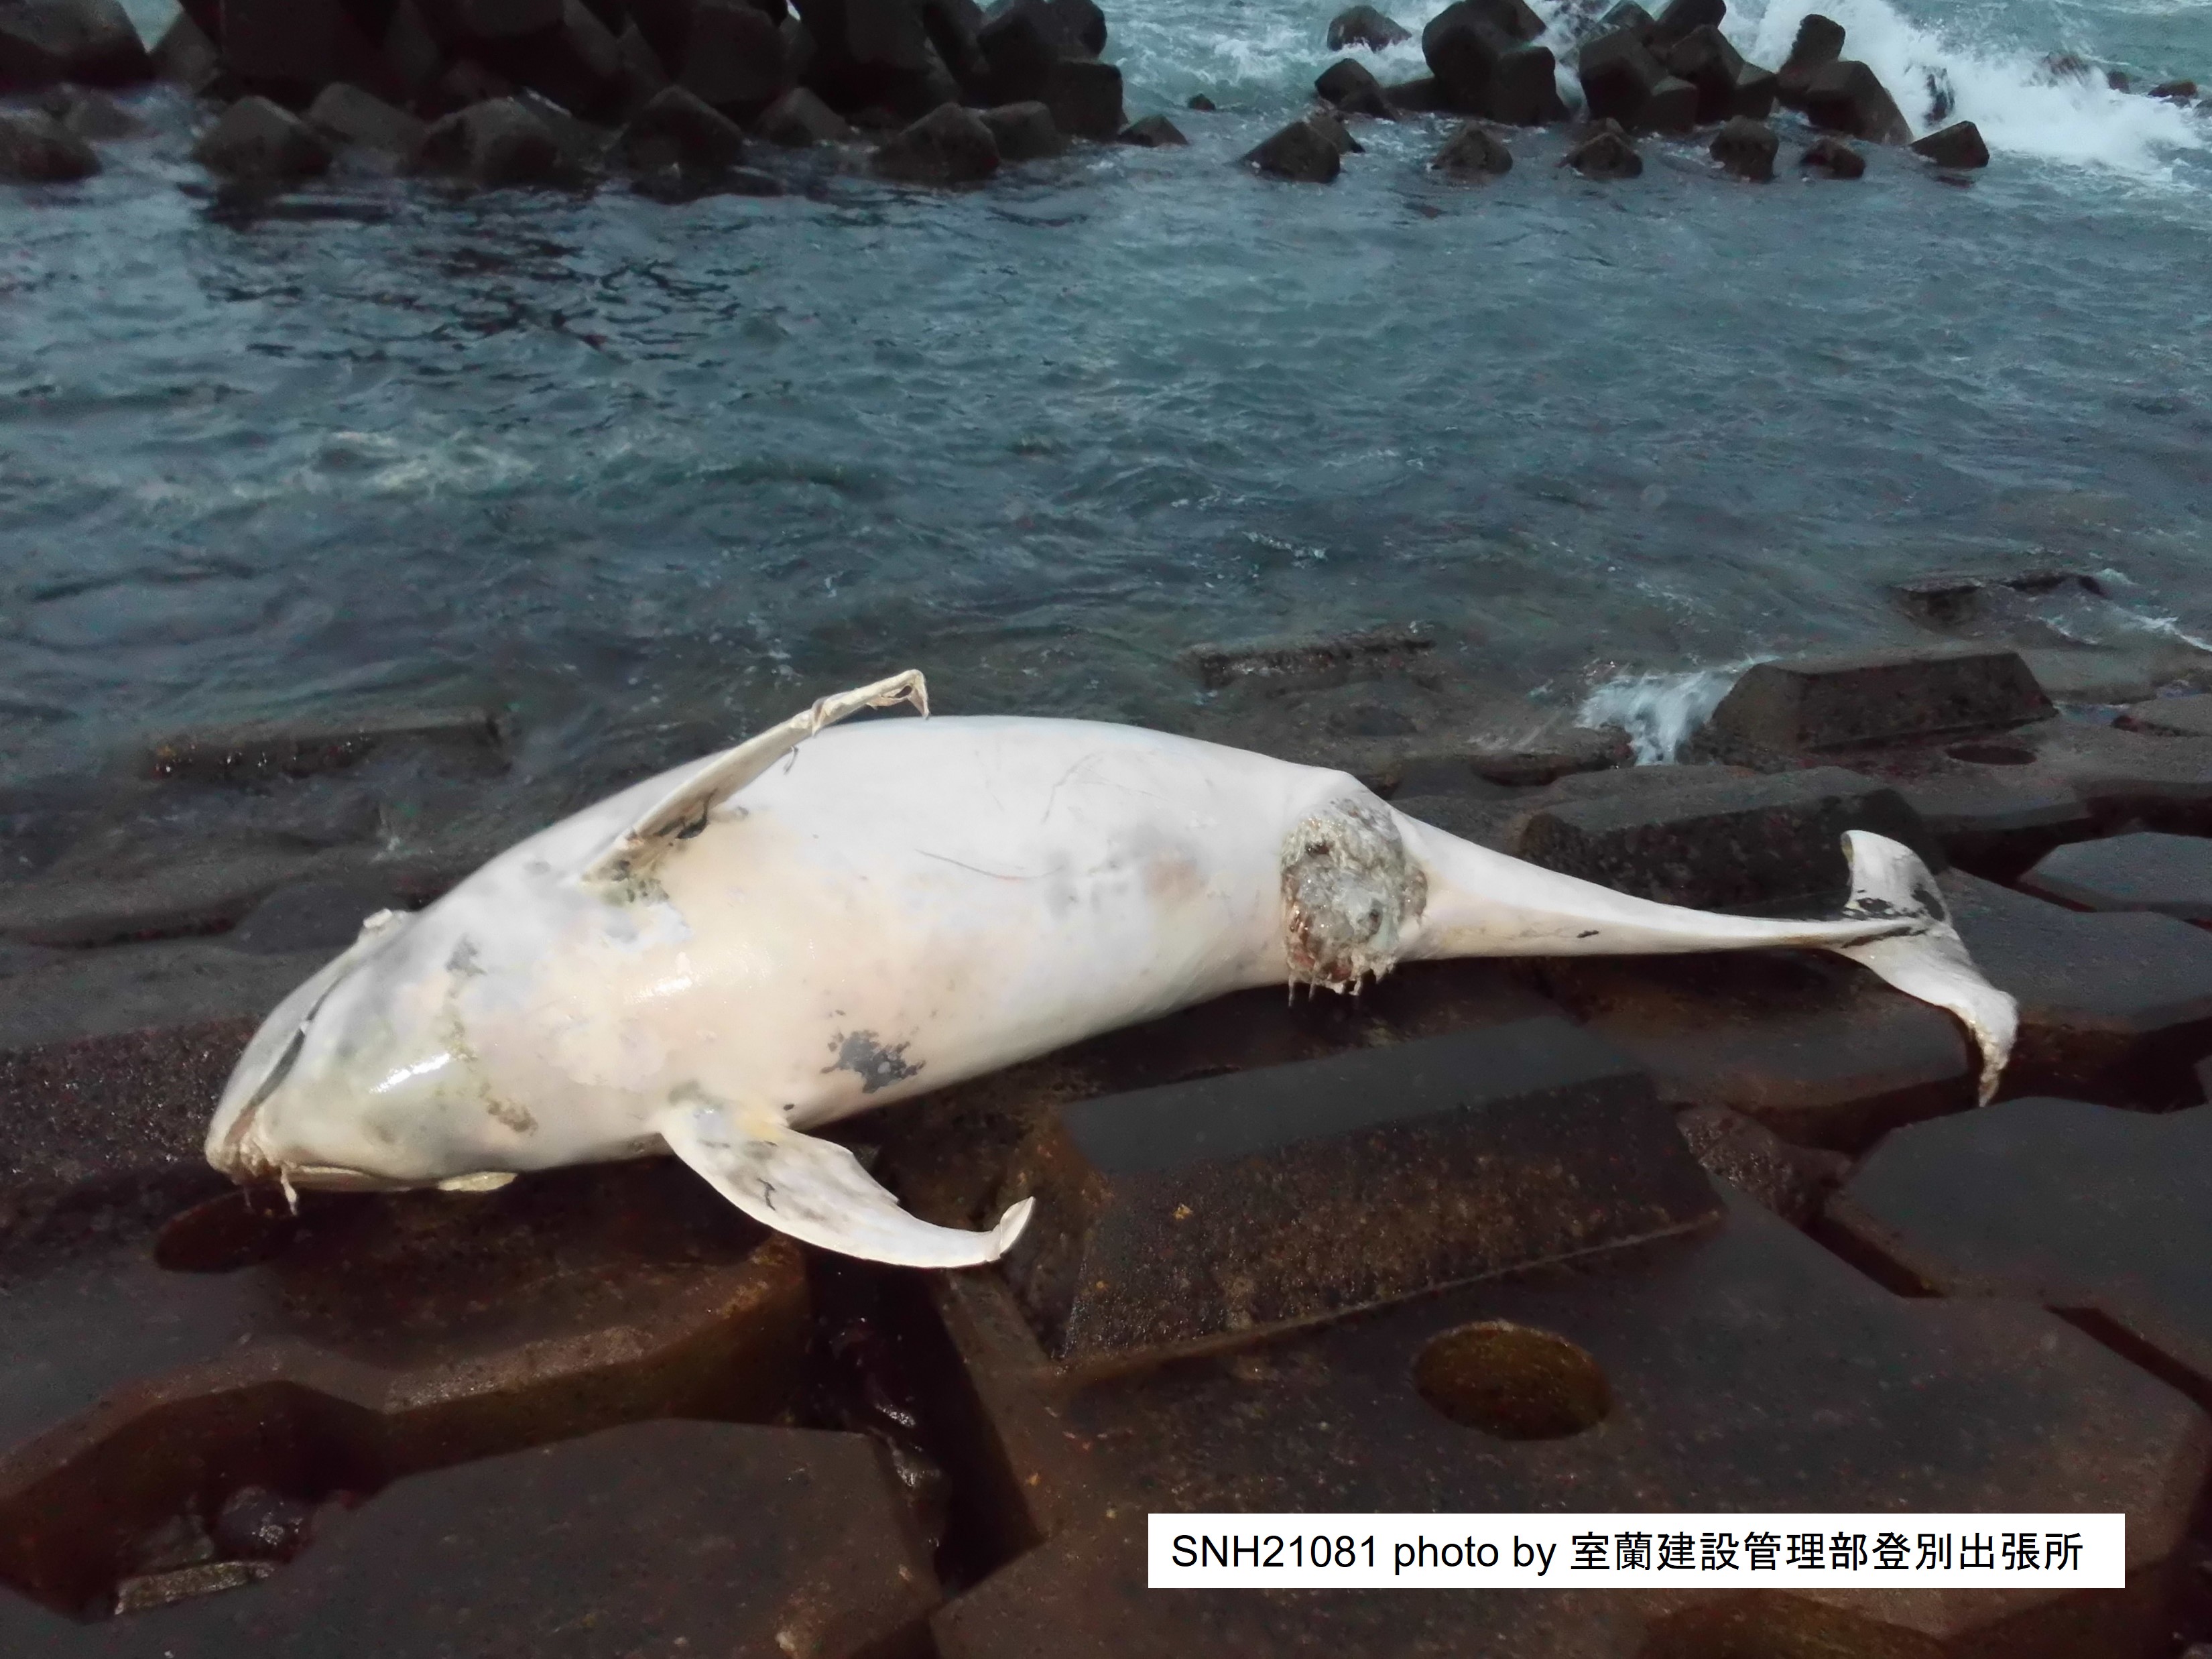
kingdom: Animalia
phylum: Chordata
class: Mammalia
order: Cetacea
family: Delphinidae
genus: Grampus
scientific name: Grampus griseus
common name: Risso's dolphin
